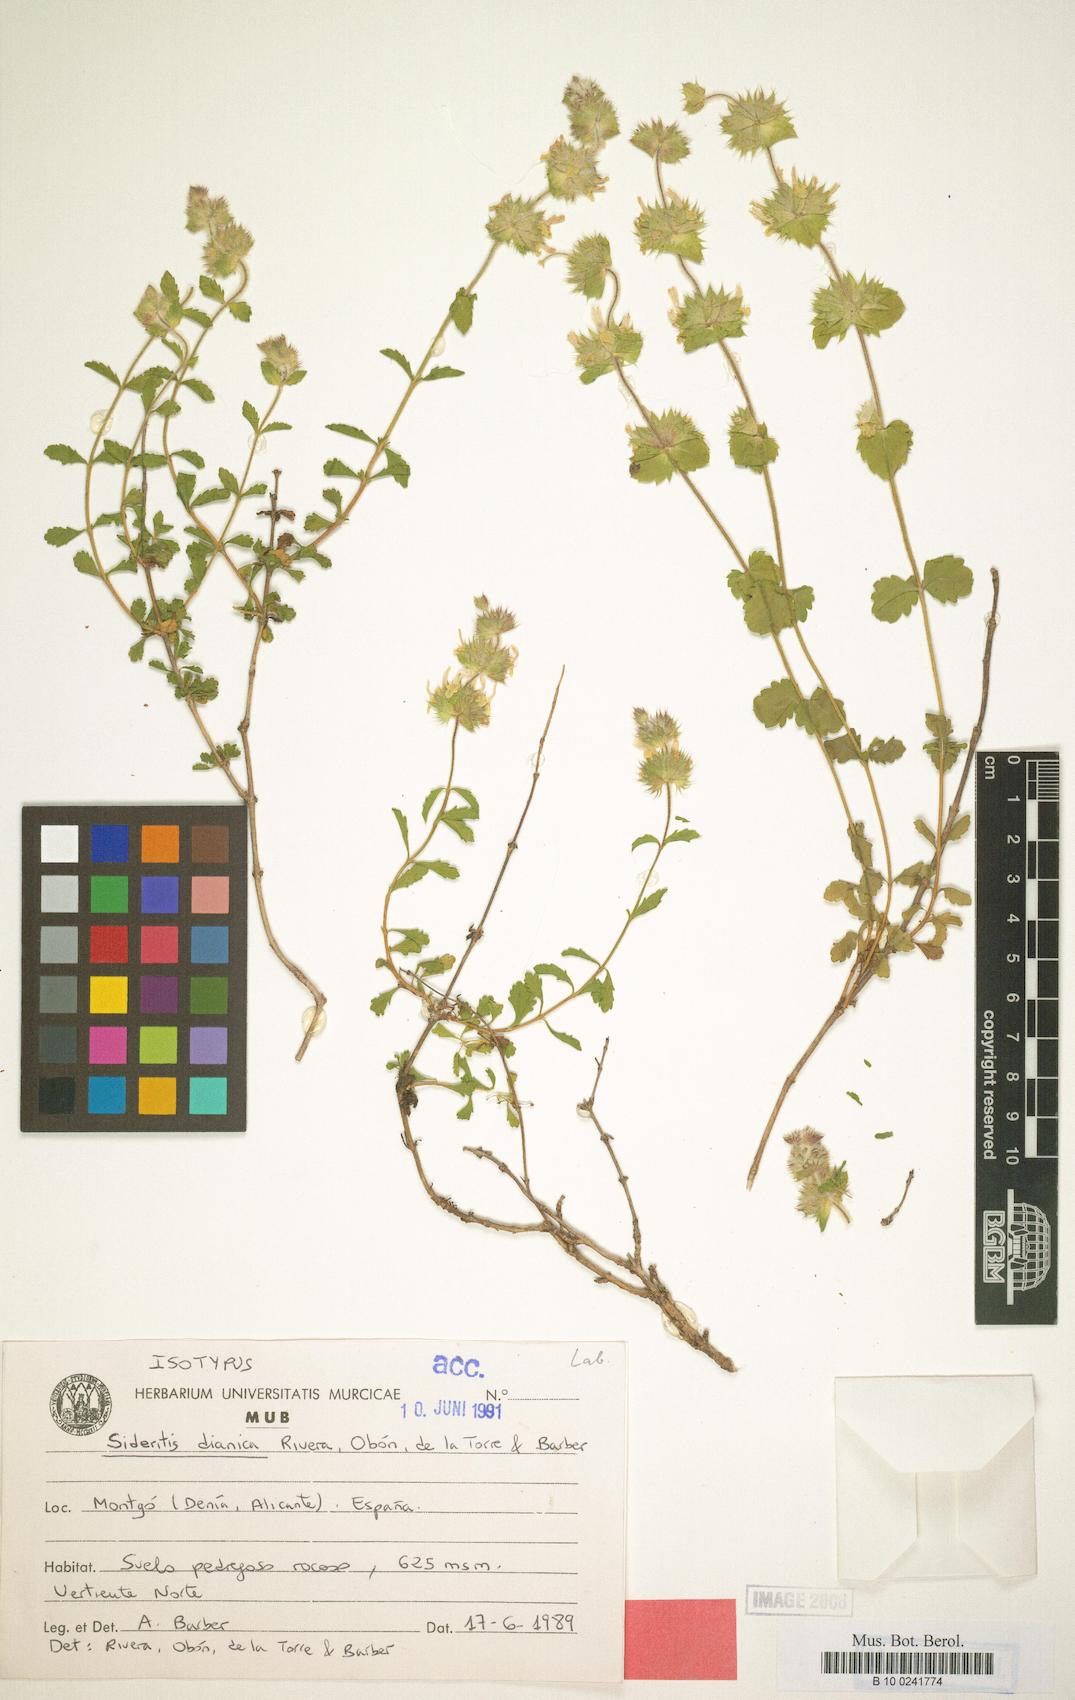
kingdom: Plantae
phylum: Tracheophyta
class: Magnoliopsida
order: Lamiales
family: Lamiaceae
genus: Sideritis
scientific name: Sideritis dianica
